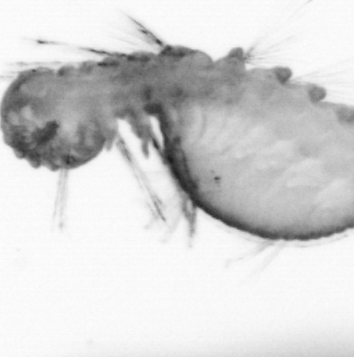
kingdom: Animalia
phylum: Annelida
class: Polychaeta
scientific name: Polychaeta
